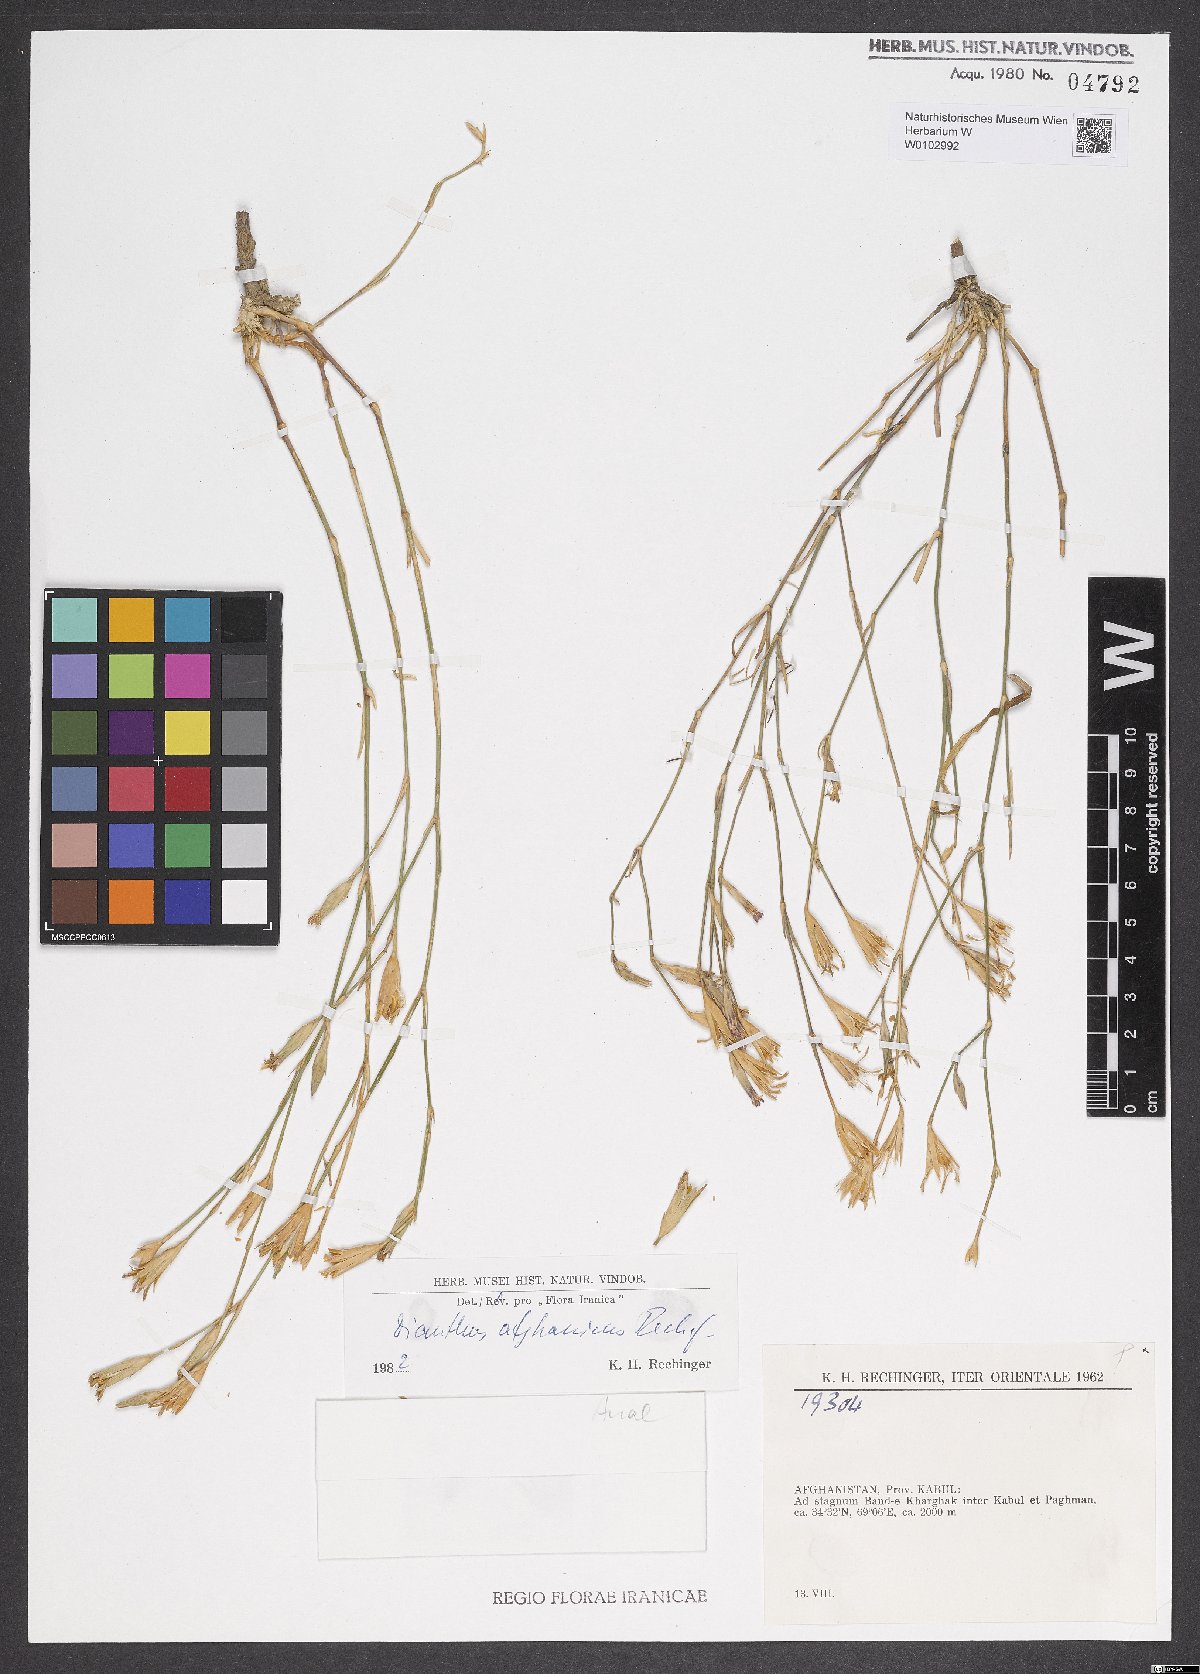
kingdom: Plantae
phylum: Tracheophyta
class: Magnoliopsida
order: Caryophyllales
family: Caryophyllaceae
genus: Dianthus
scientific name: Dianthus afghanicus
